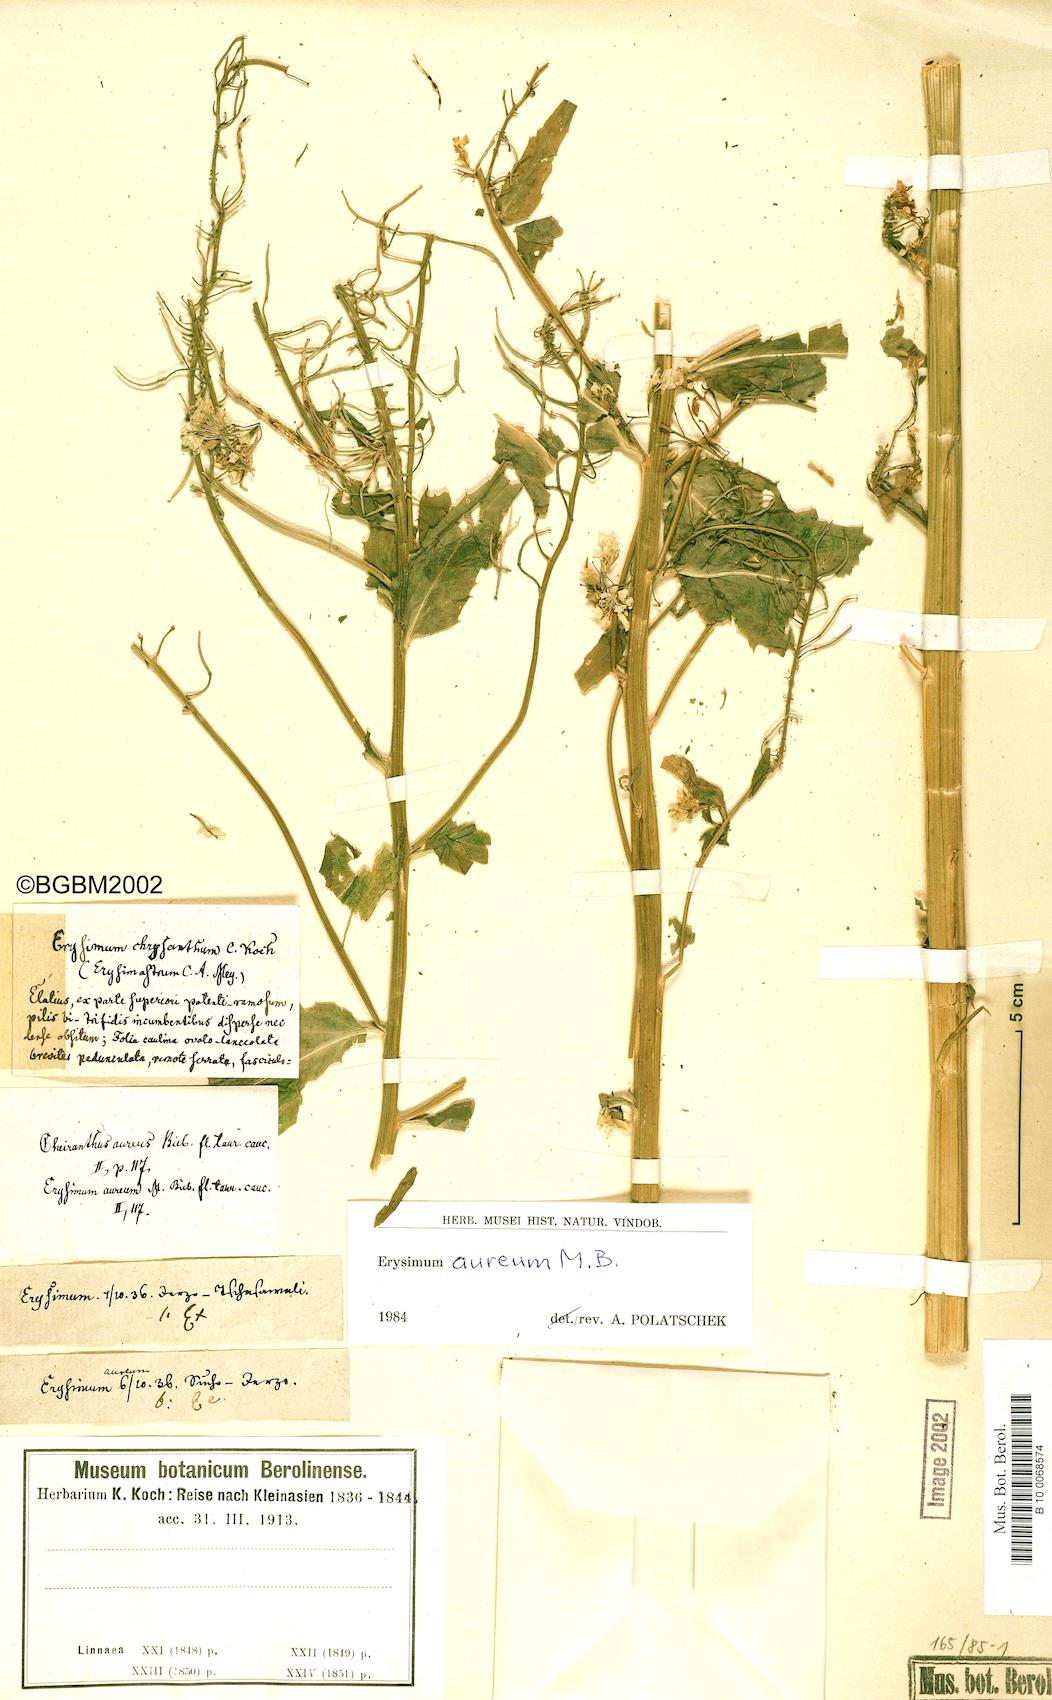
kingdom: Plantae
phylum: Tracheophyta
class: Magnoliopsida
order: Brassicales
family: Brassicaceae
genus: Erysimum
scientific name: Erysimum aureum
